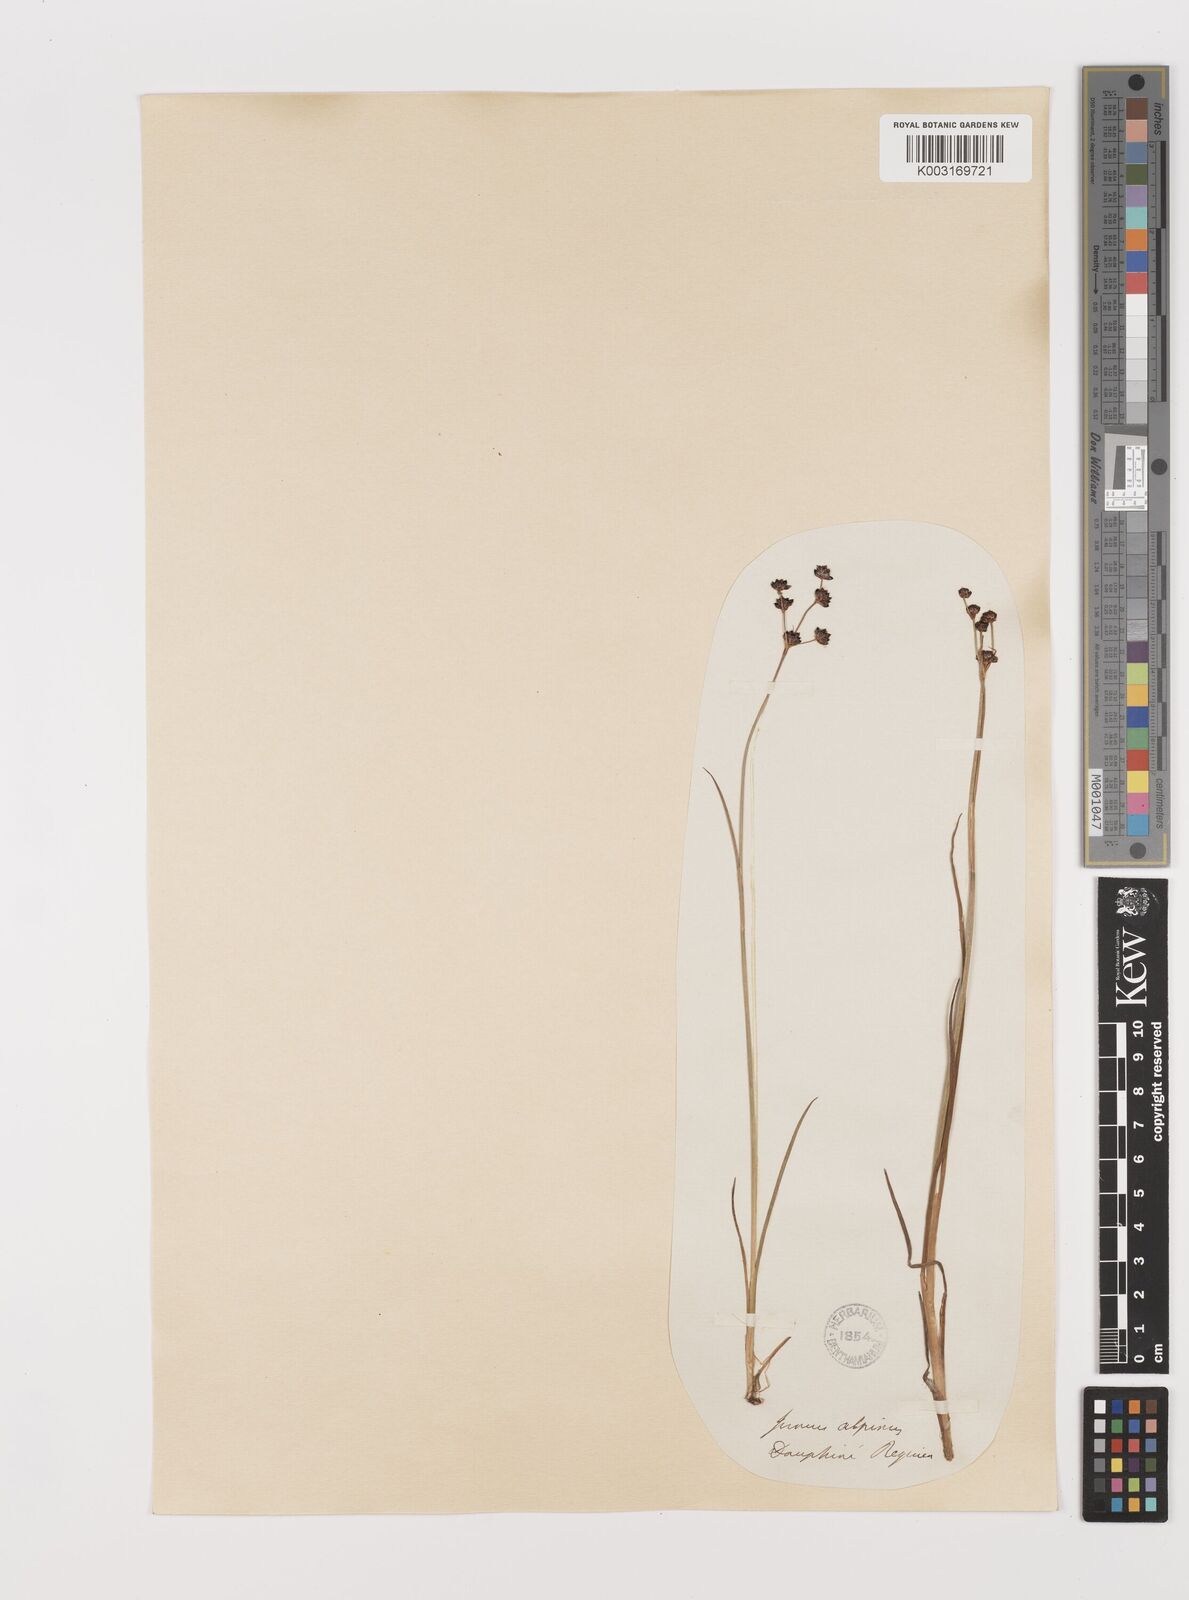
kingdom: Plantae
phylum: Tracheophyta
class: Liliopsida
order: Poales
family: Juncaceae
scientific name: Juncaceae
